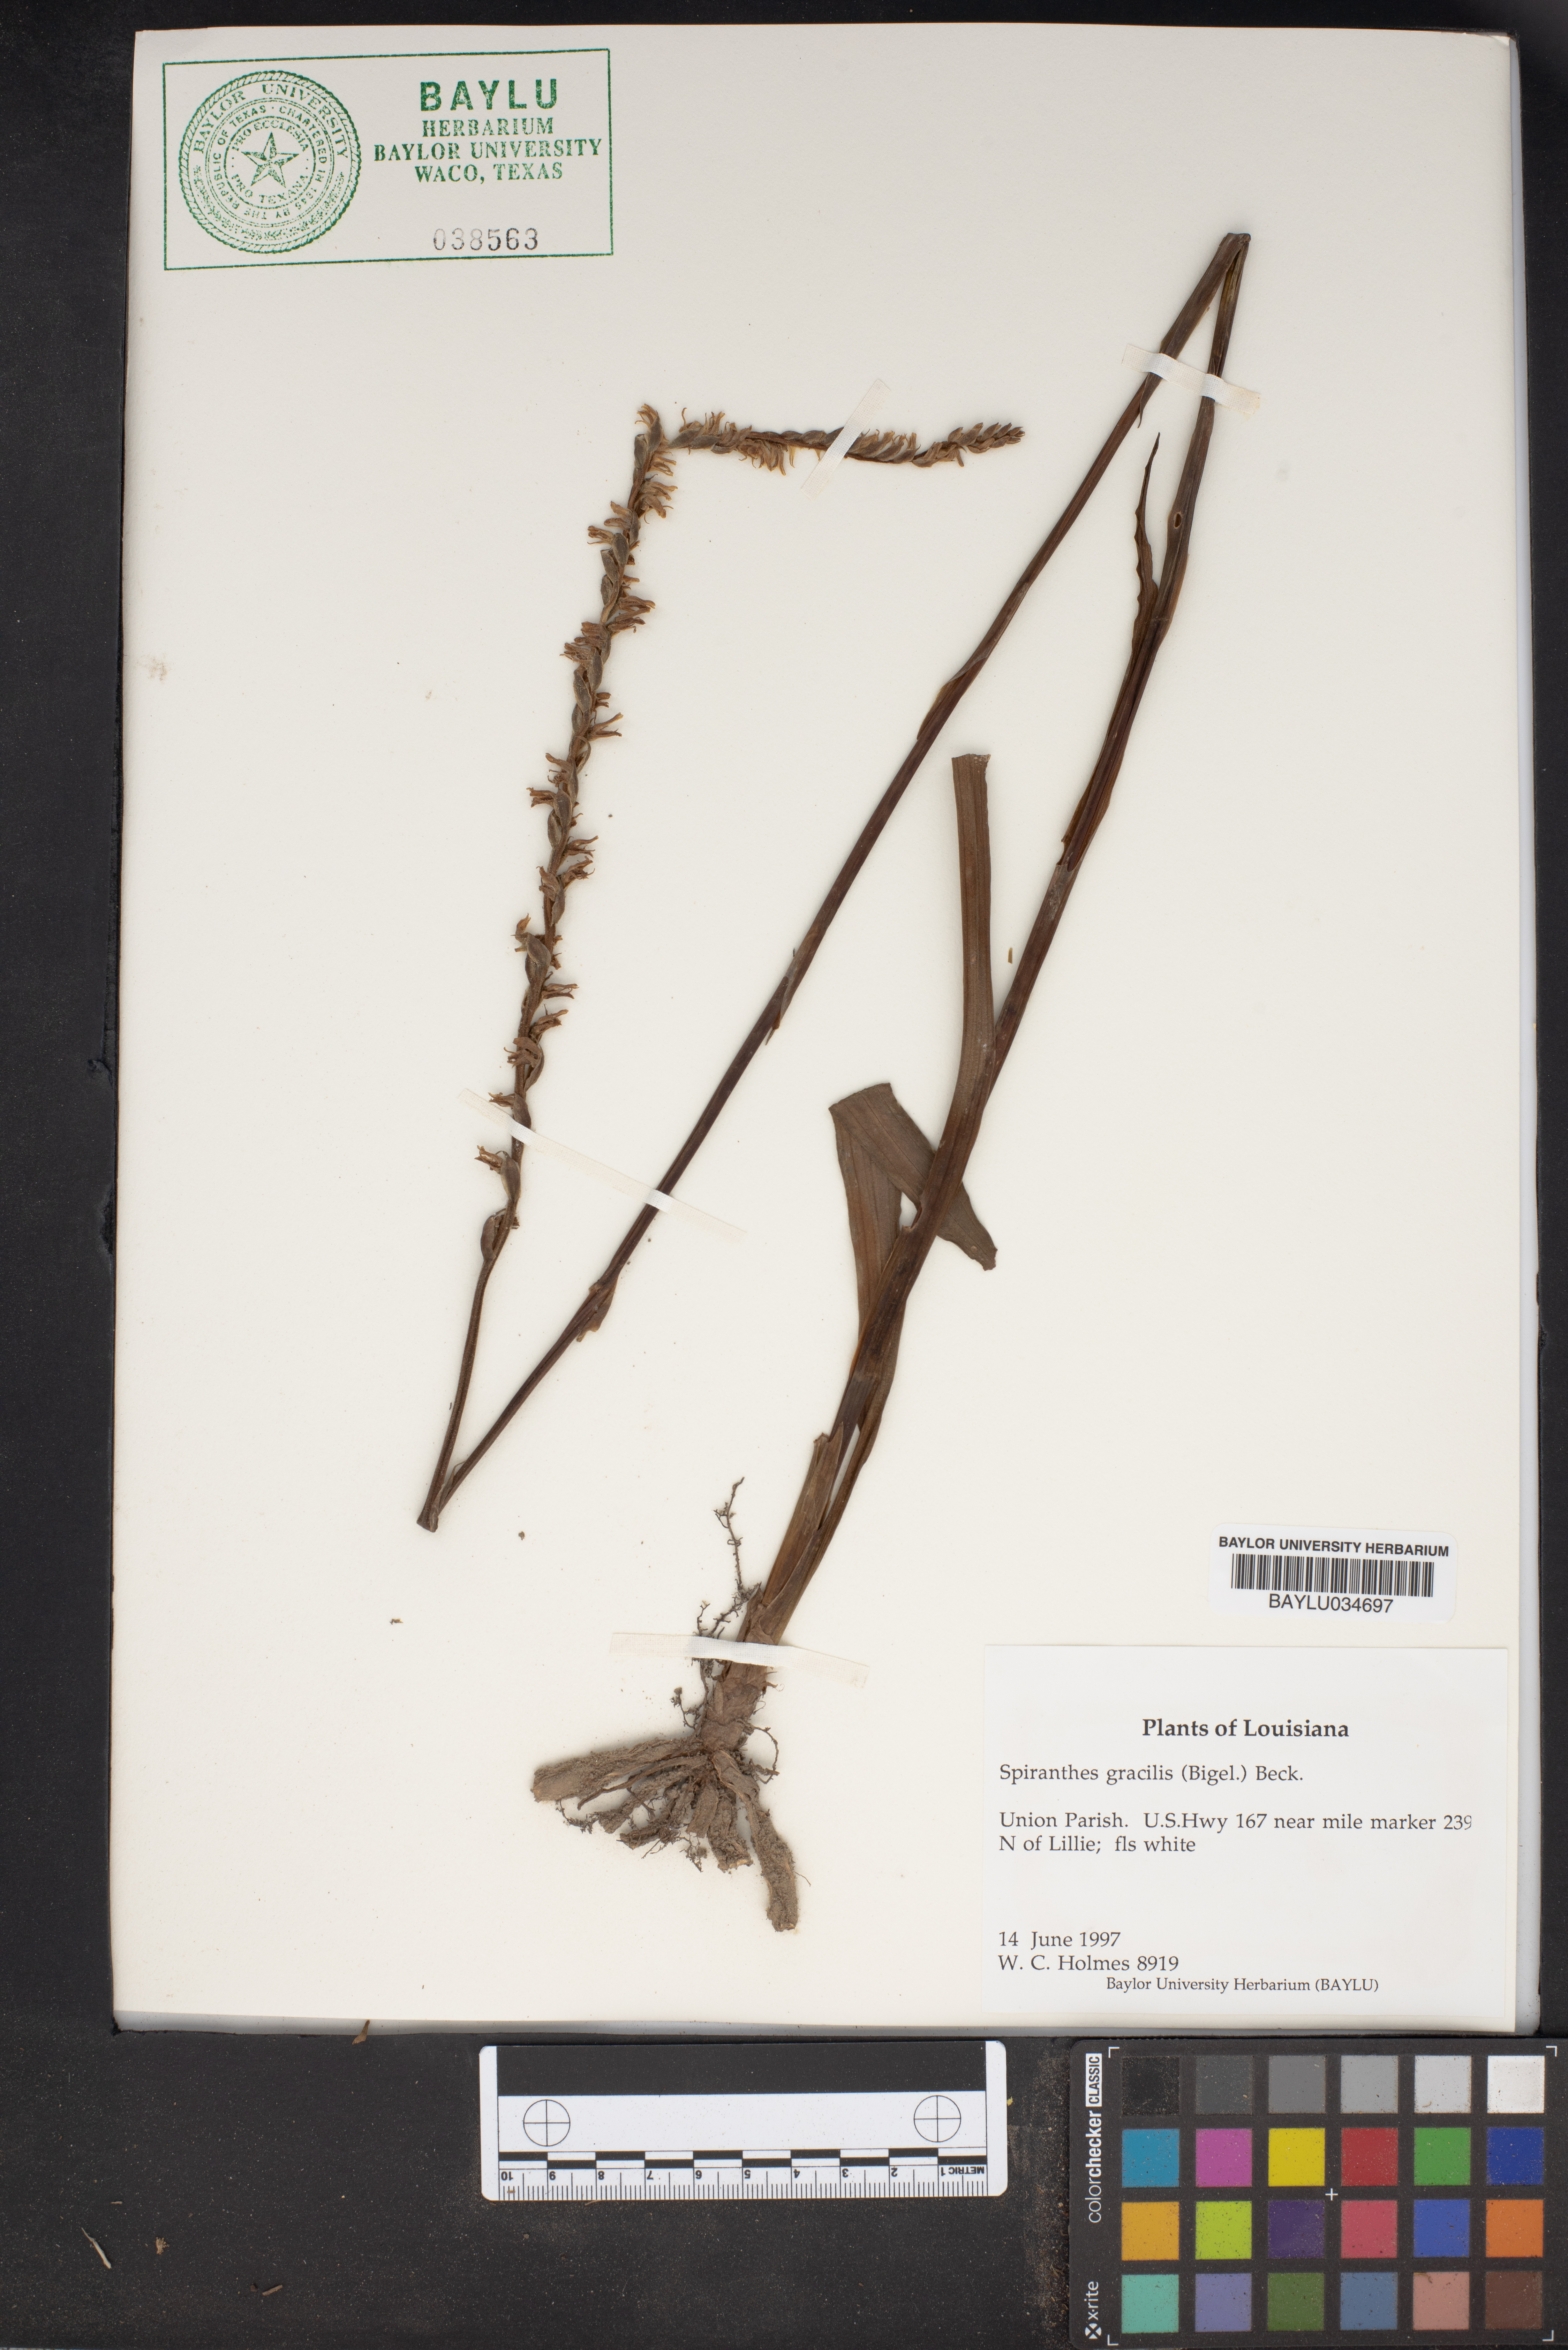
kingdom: Plantae
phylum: Tracheophyta
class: Liliopsida
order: Asparagales
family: Orchidaceae
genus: Spiranthes
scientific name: Spiranthes lacera
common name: Northern slender ladies'-tresses
